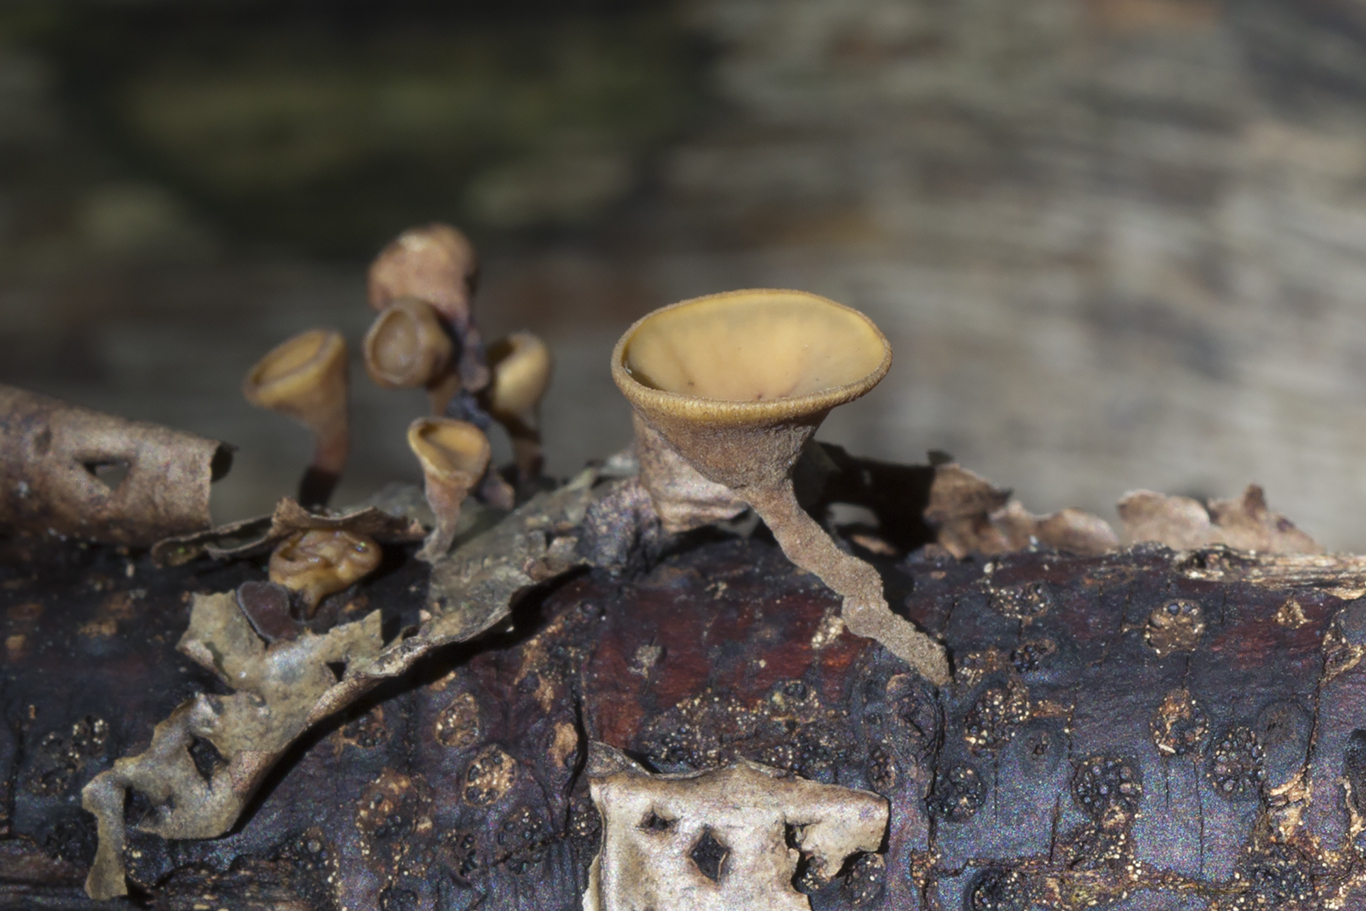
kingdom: Fungi
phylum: Ascomycota
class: Leotiomycetes
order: Helotiales
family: Rutstroemiaceae
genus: Rutstroemia
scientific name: Rutstroemia
